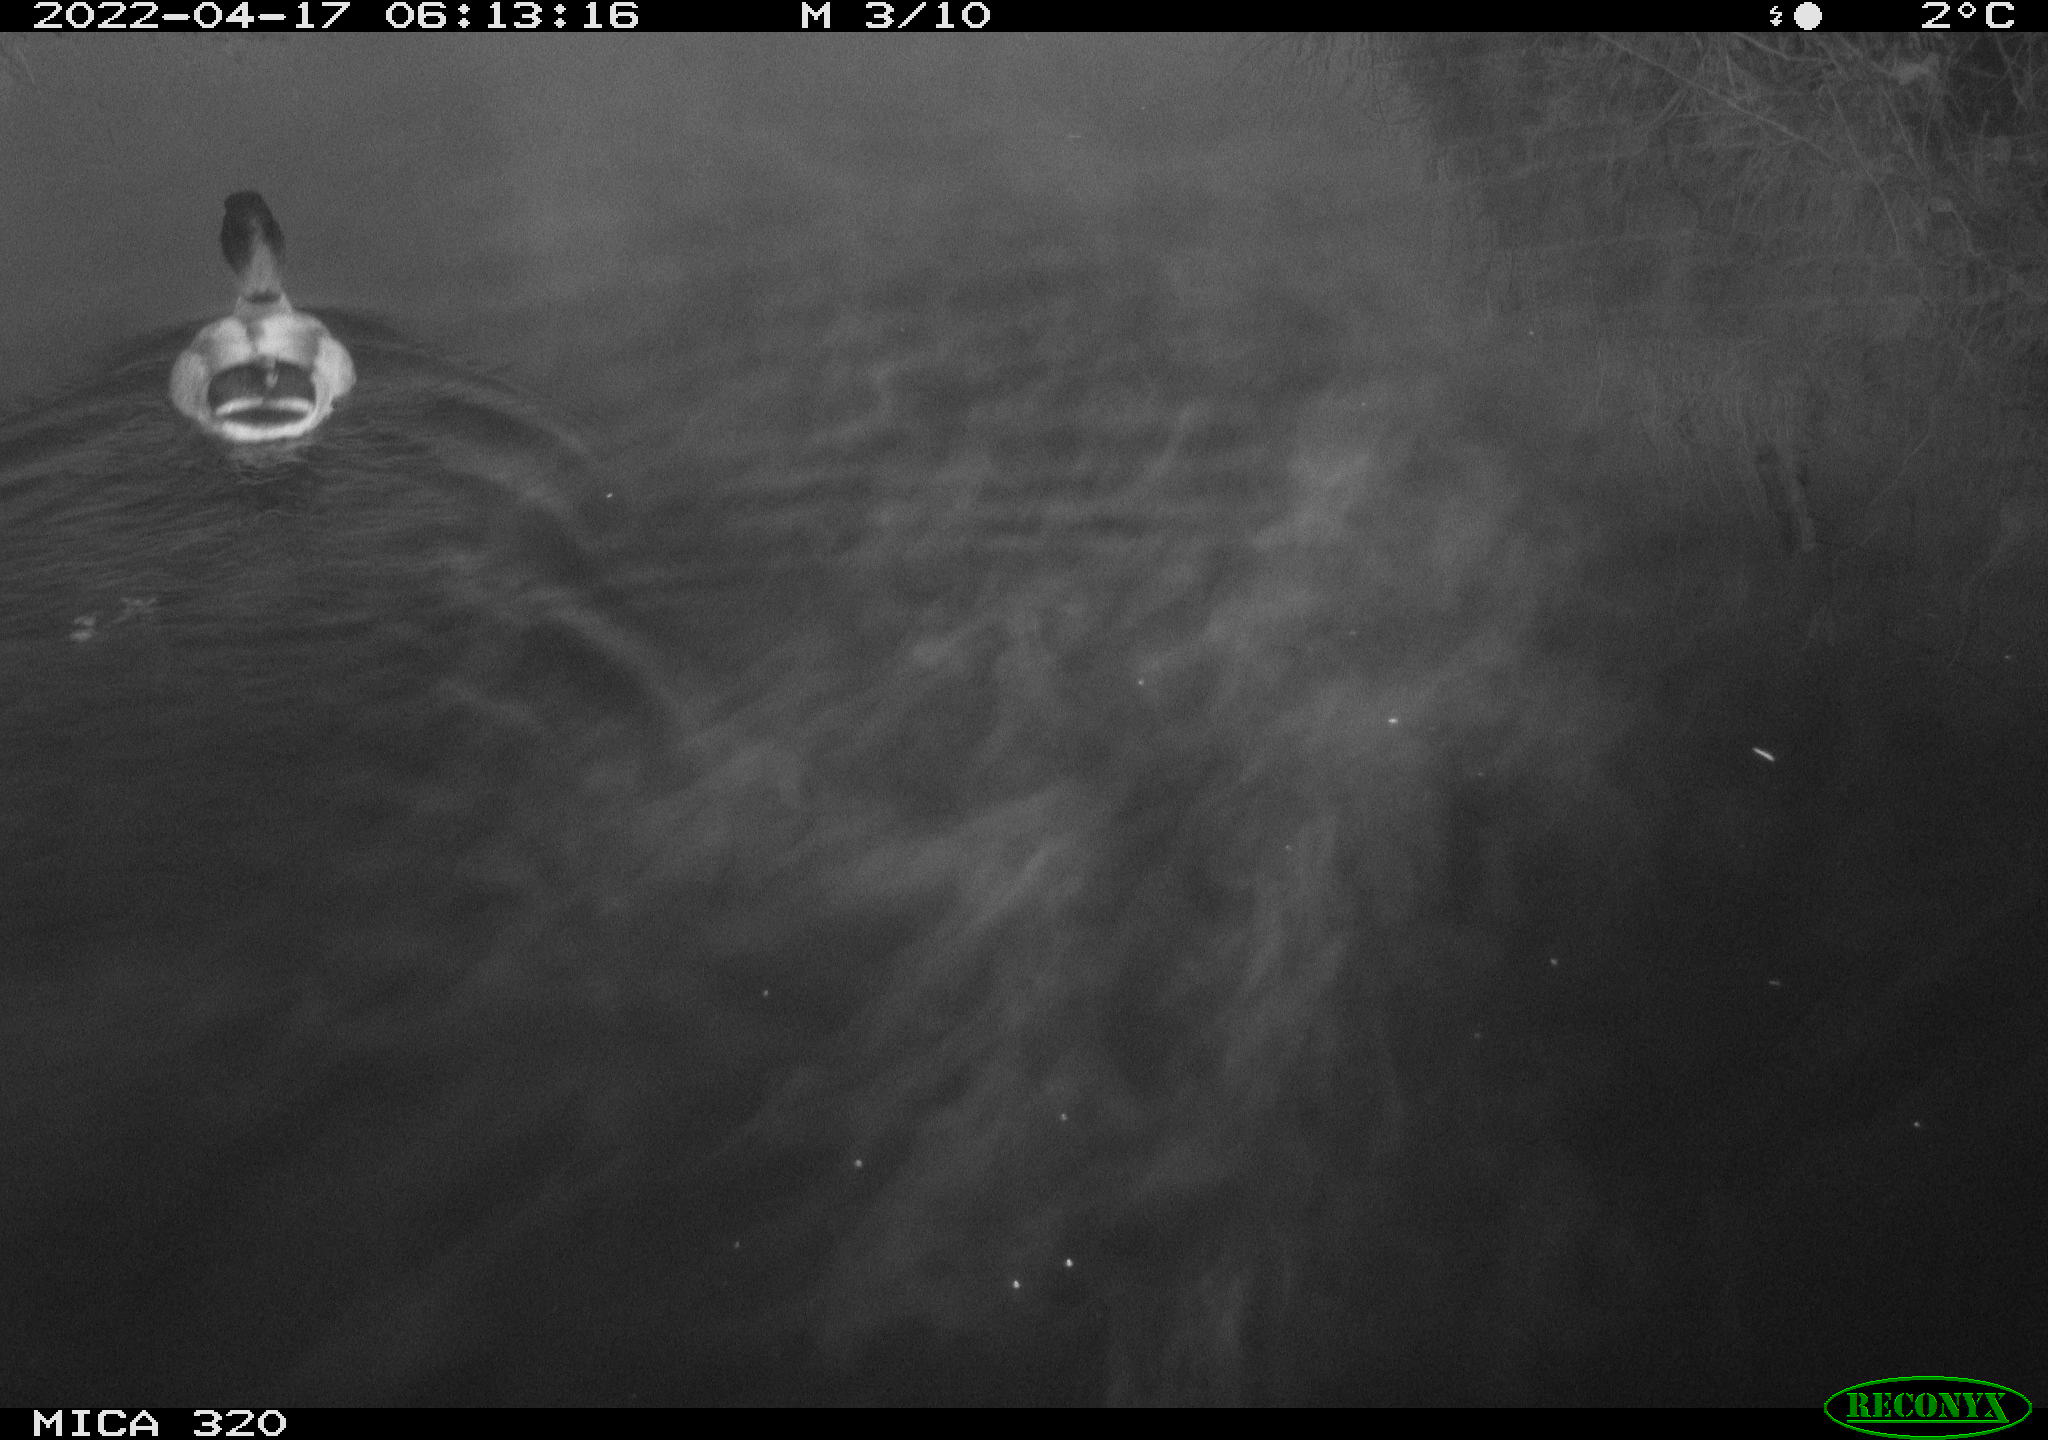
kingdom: Animalia
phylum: Chordata
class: Aves
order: Anseriformes
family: Anatidae
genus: Anas
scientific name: Anas platyrhynchos
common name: Mallard
